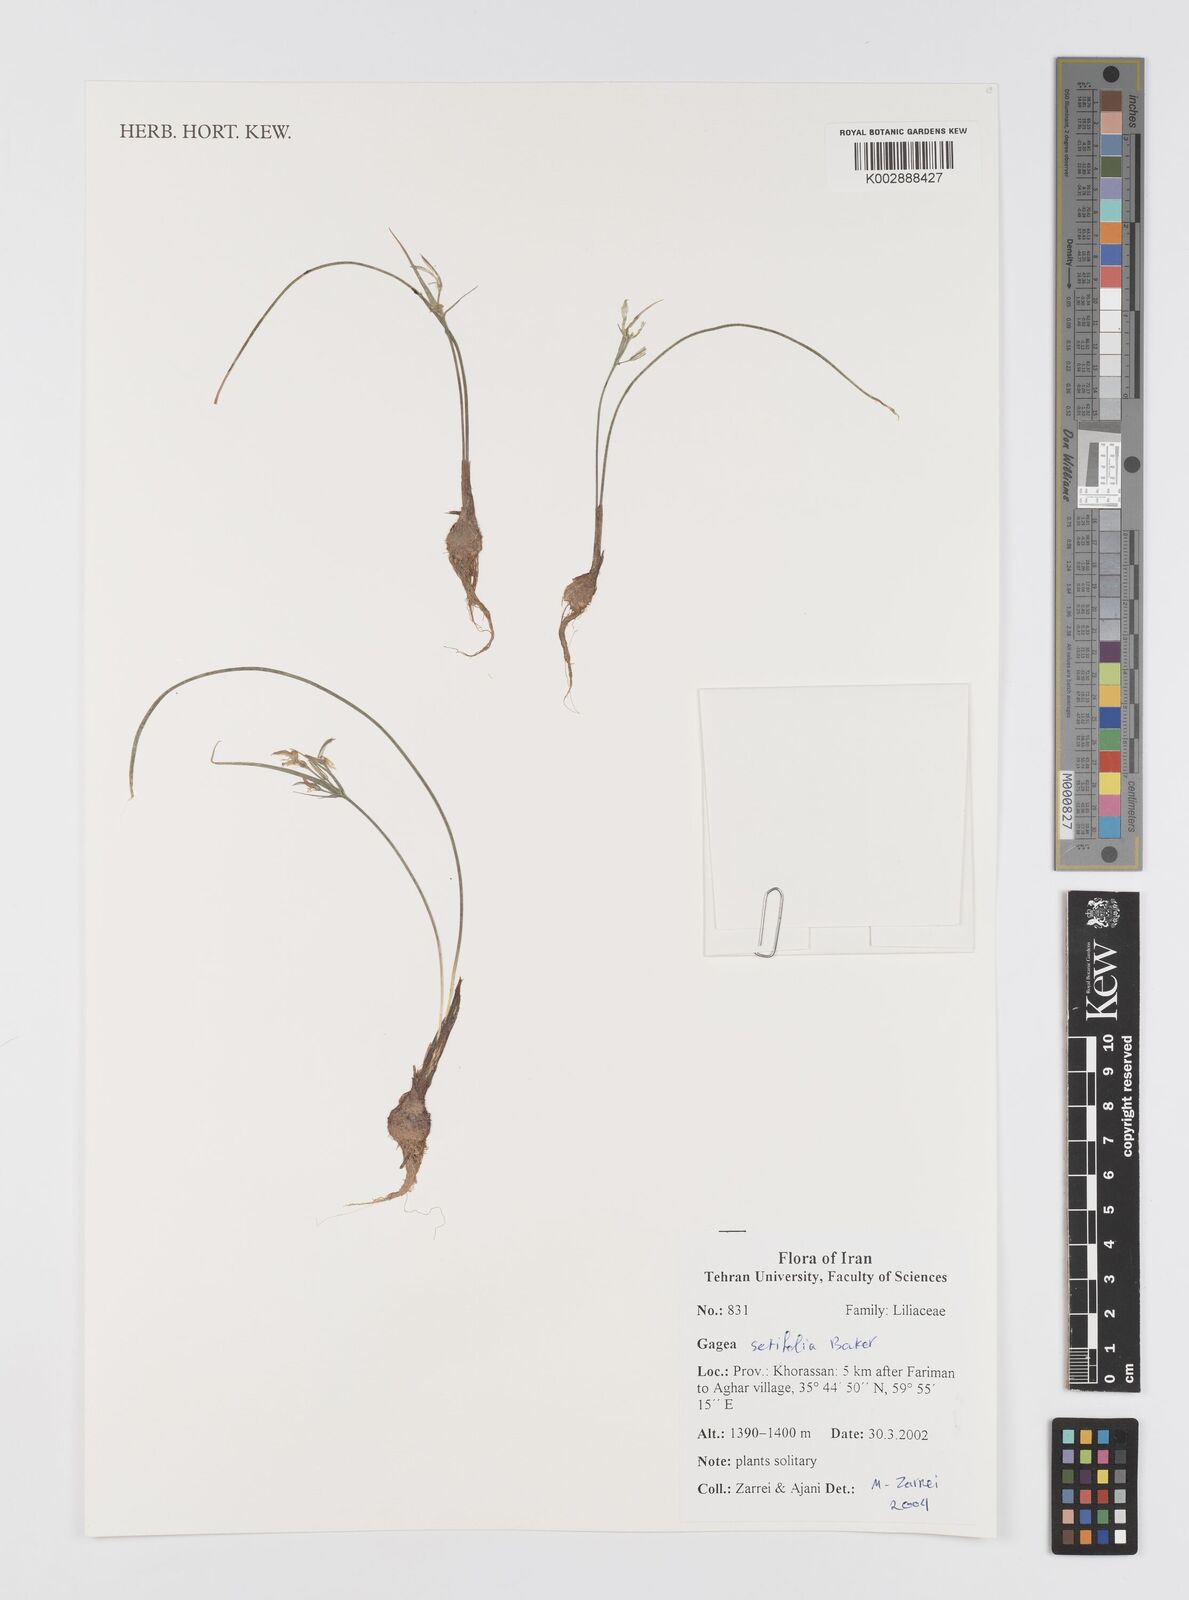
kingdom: Plantae
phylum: Tracheophyta
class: Liliopsida
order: Liliales
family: Liliaceae
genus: Gagea
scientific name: Gagea setifolia
